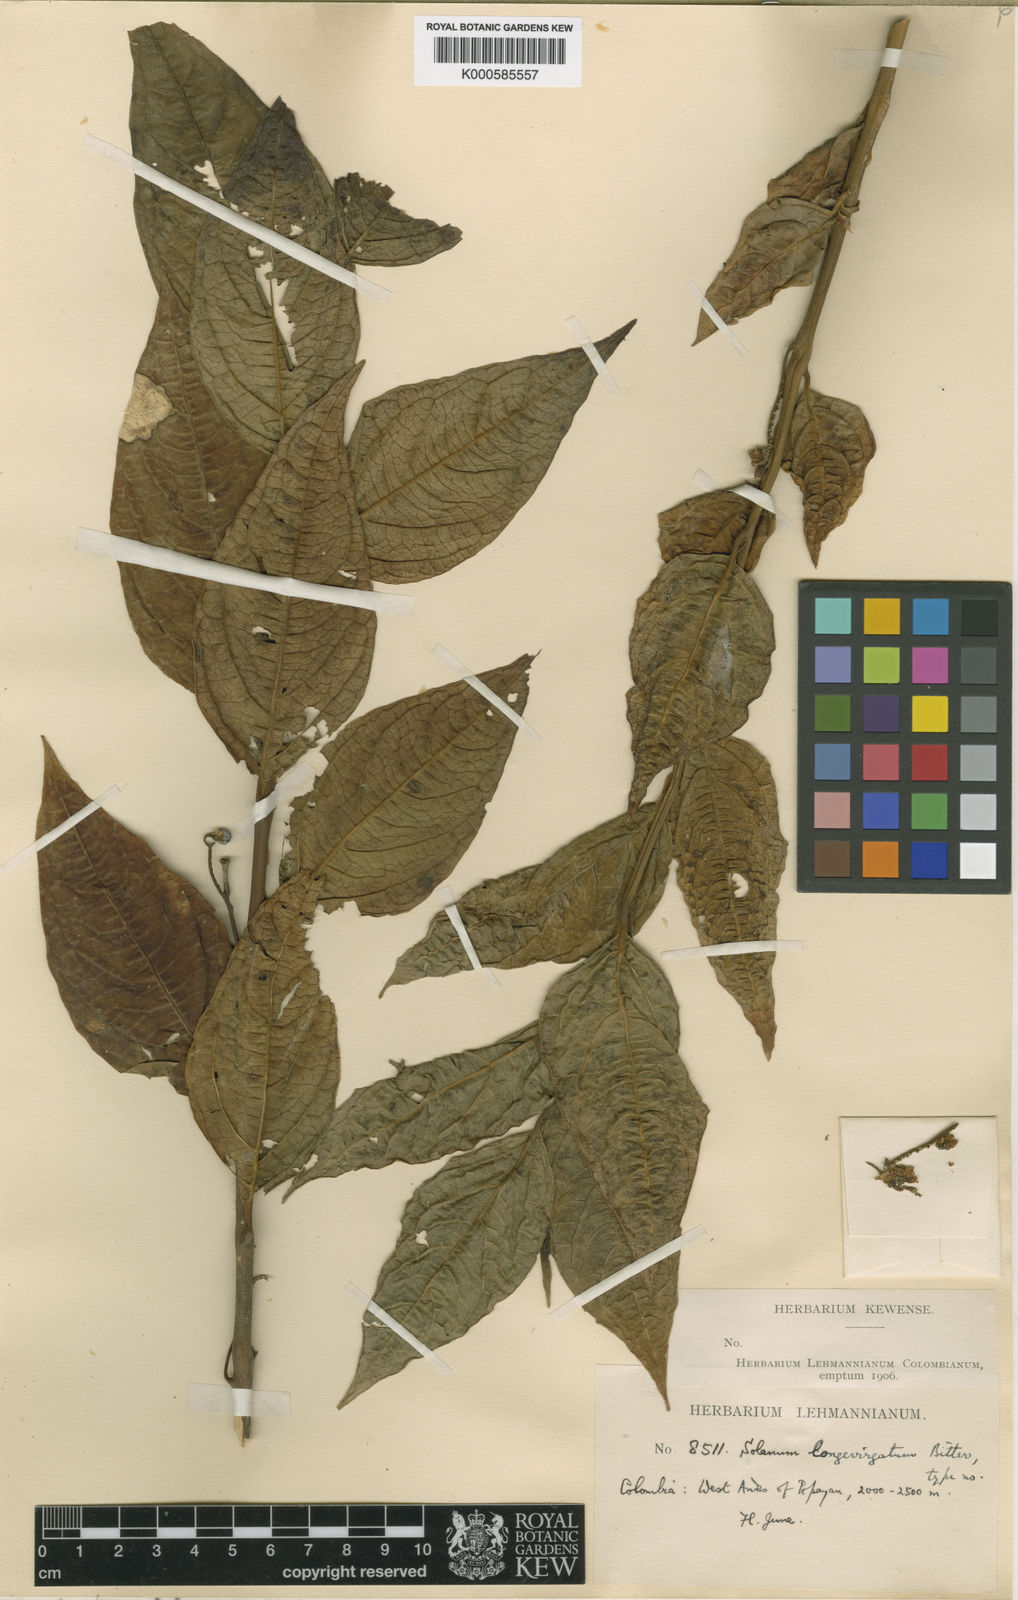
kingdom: Plantae
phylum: Tracheophyta
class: Magnoliopsida
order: Solanales
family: Solanaceae
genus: Solanum
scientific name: Solanum longevirgatum
